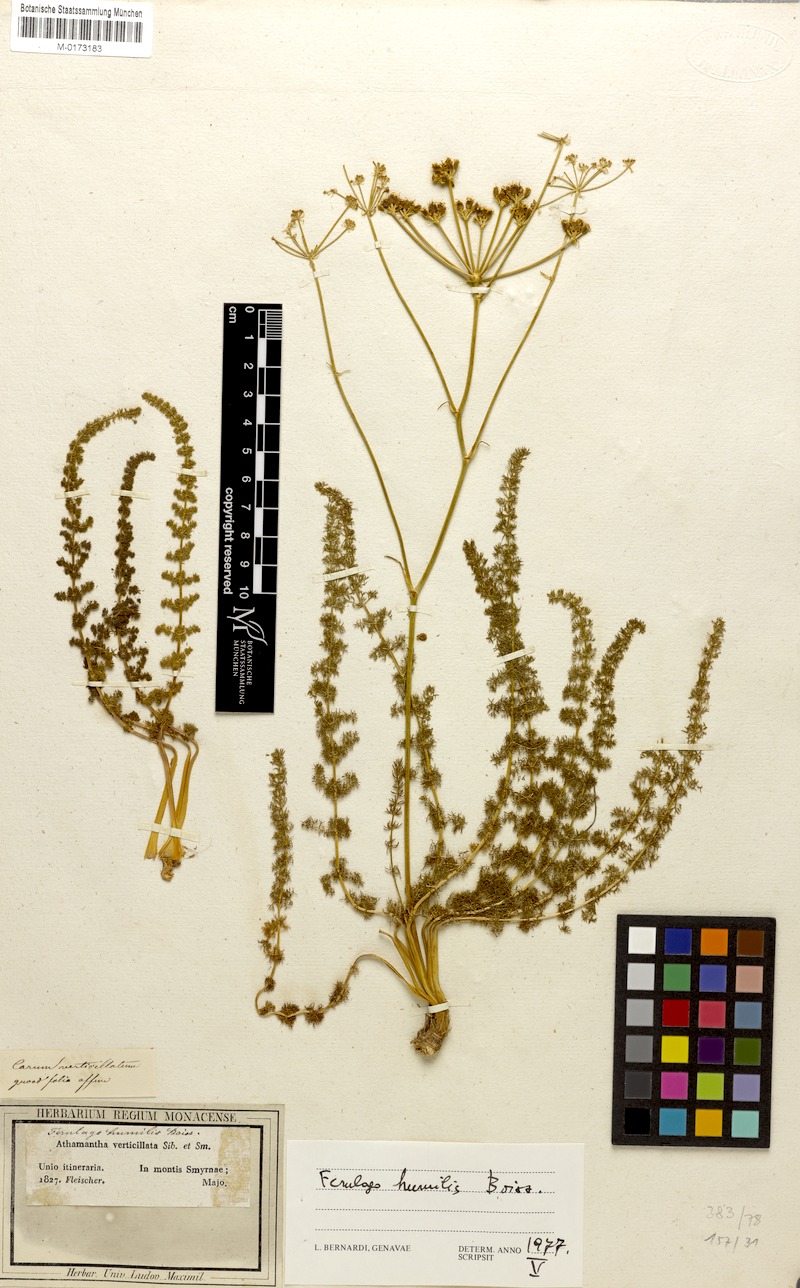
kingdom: Plantae
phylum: Tracheophyta
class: Magnoliopsida
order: Apiales
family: Apiaceae
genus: Ferulago
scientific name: Ferulago humilis
